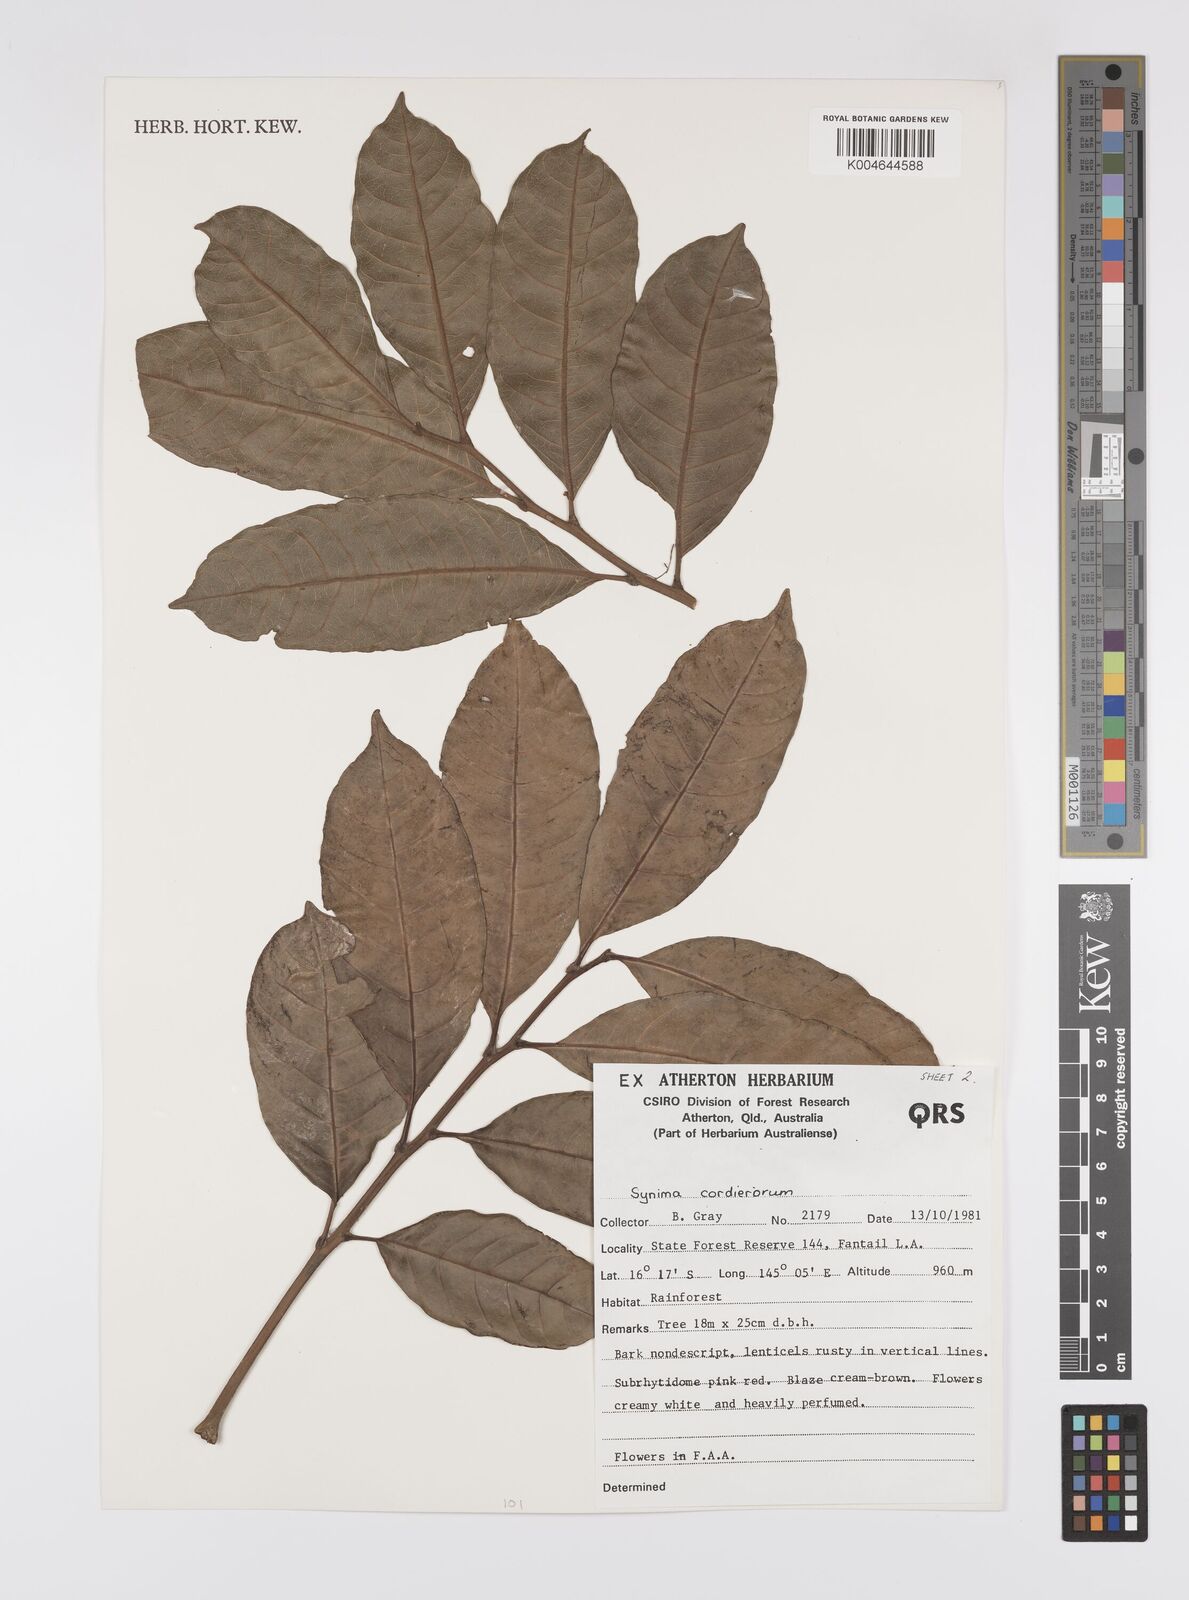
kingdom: Plantae
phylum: Tracheophyta
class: Magnoliopsida
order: Sapindales
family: Sapindaceae
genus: Synima
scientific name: Synima
